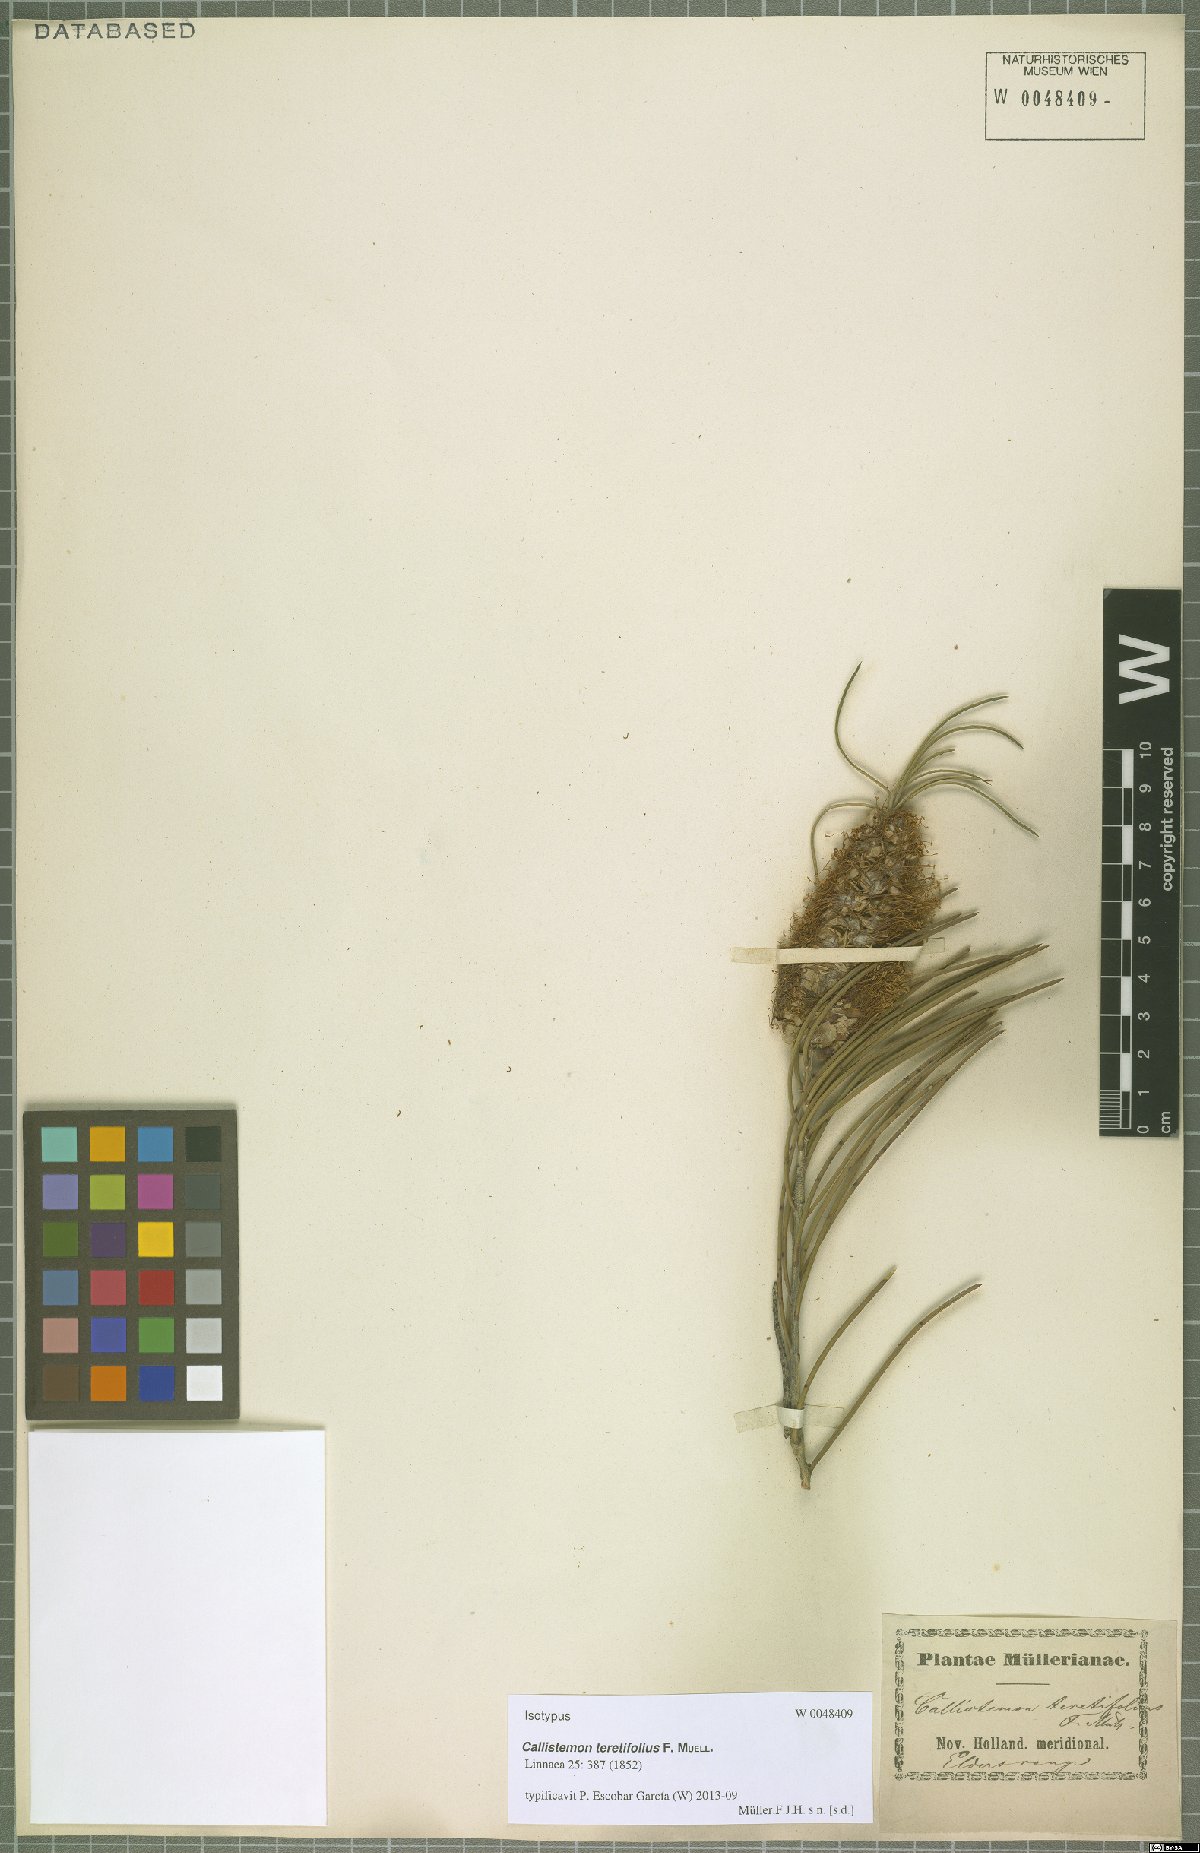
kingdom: Plantae
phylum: Tracheophyta
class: Magnoliopsida
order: Myrtales
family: Myrtaceae
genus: Callistemon
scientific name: Callistemon teretifolius
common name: Green bottlebrush
